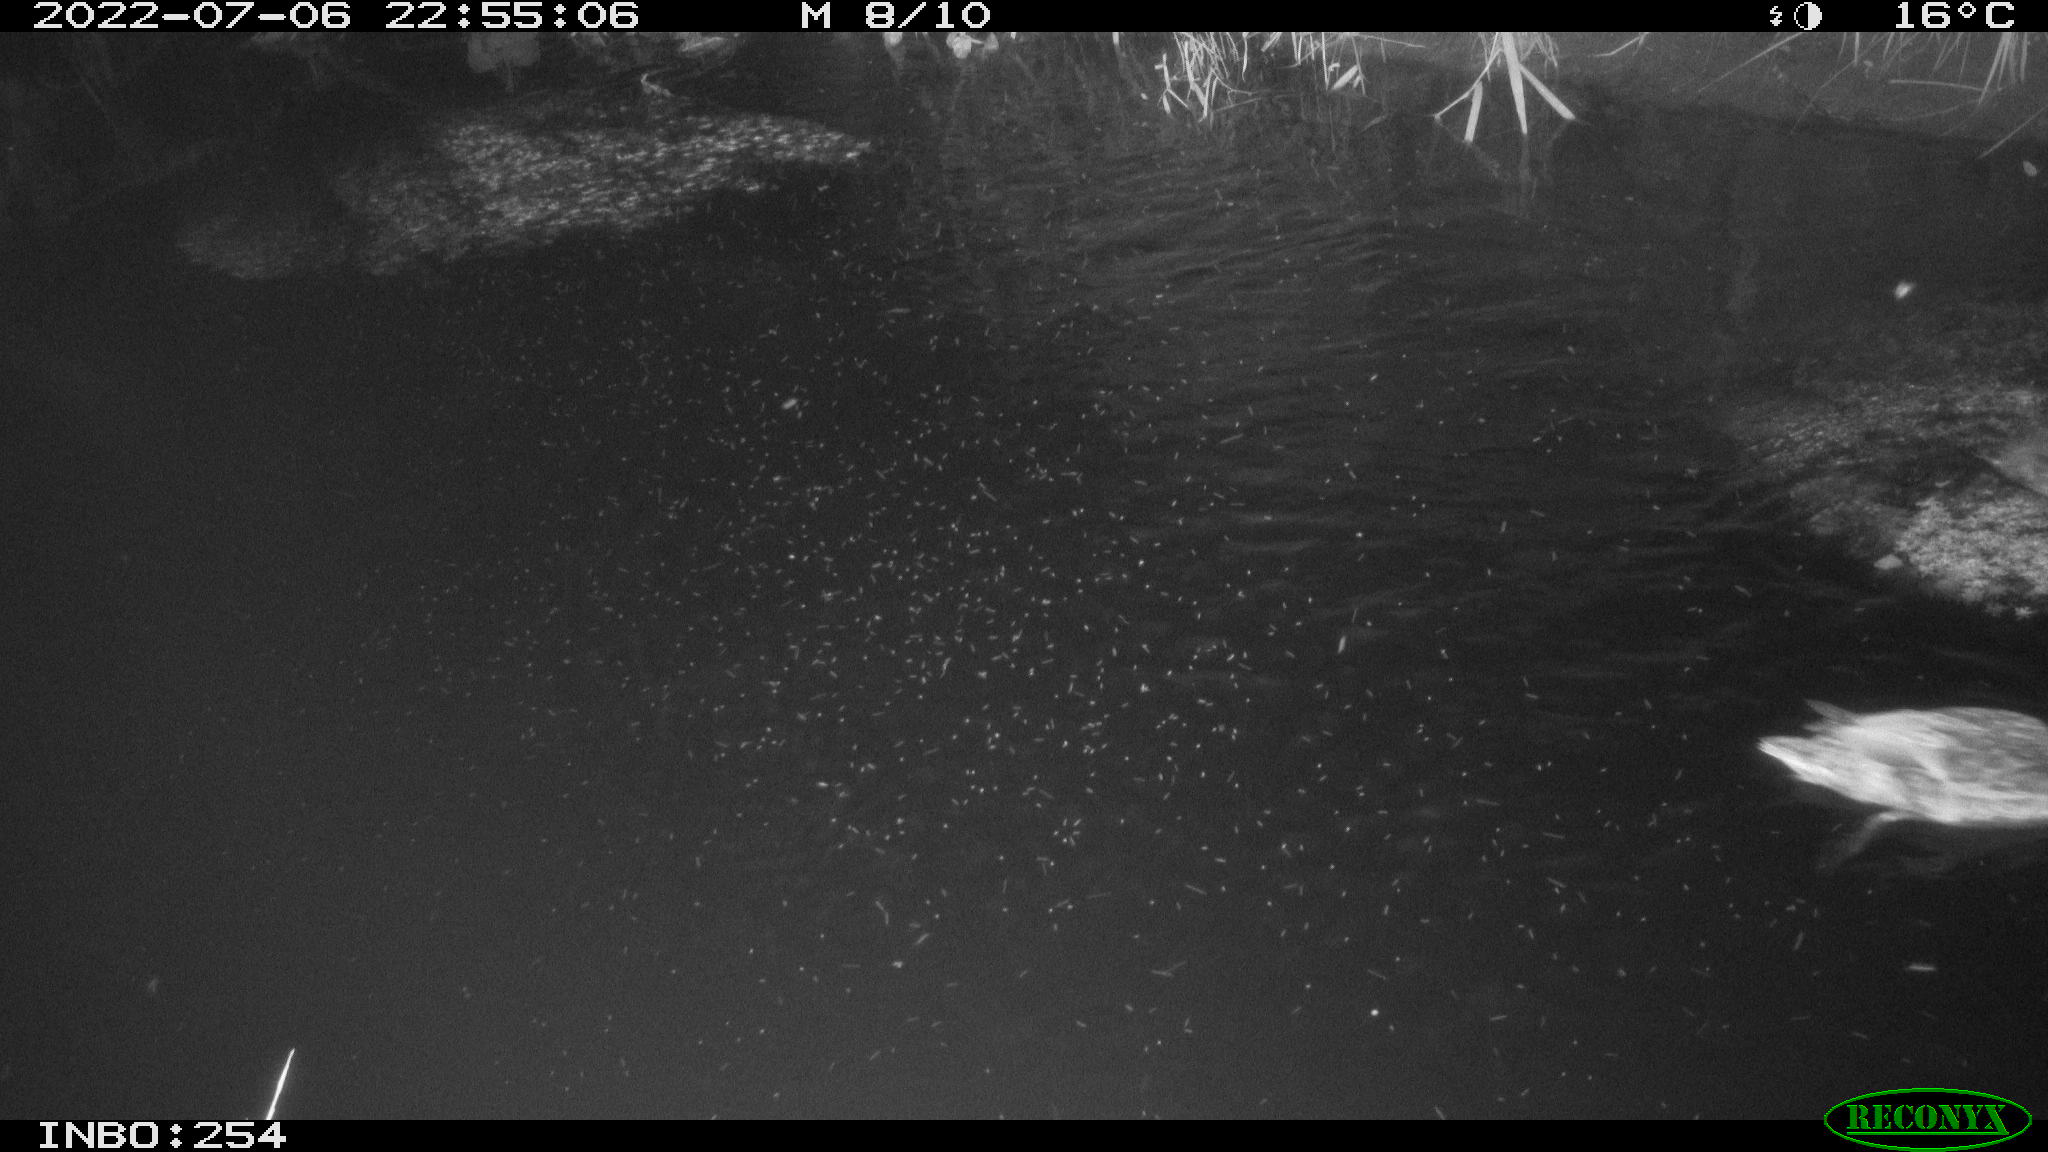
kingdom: Animalia
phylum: Chordata
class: Aves
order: Anseriformes
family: Anatidae
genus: Anas
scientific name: Anas platyrhynchos
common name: Mallard
